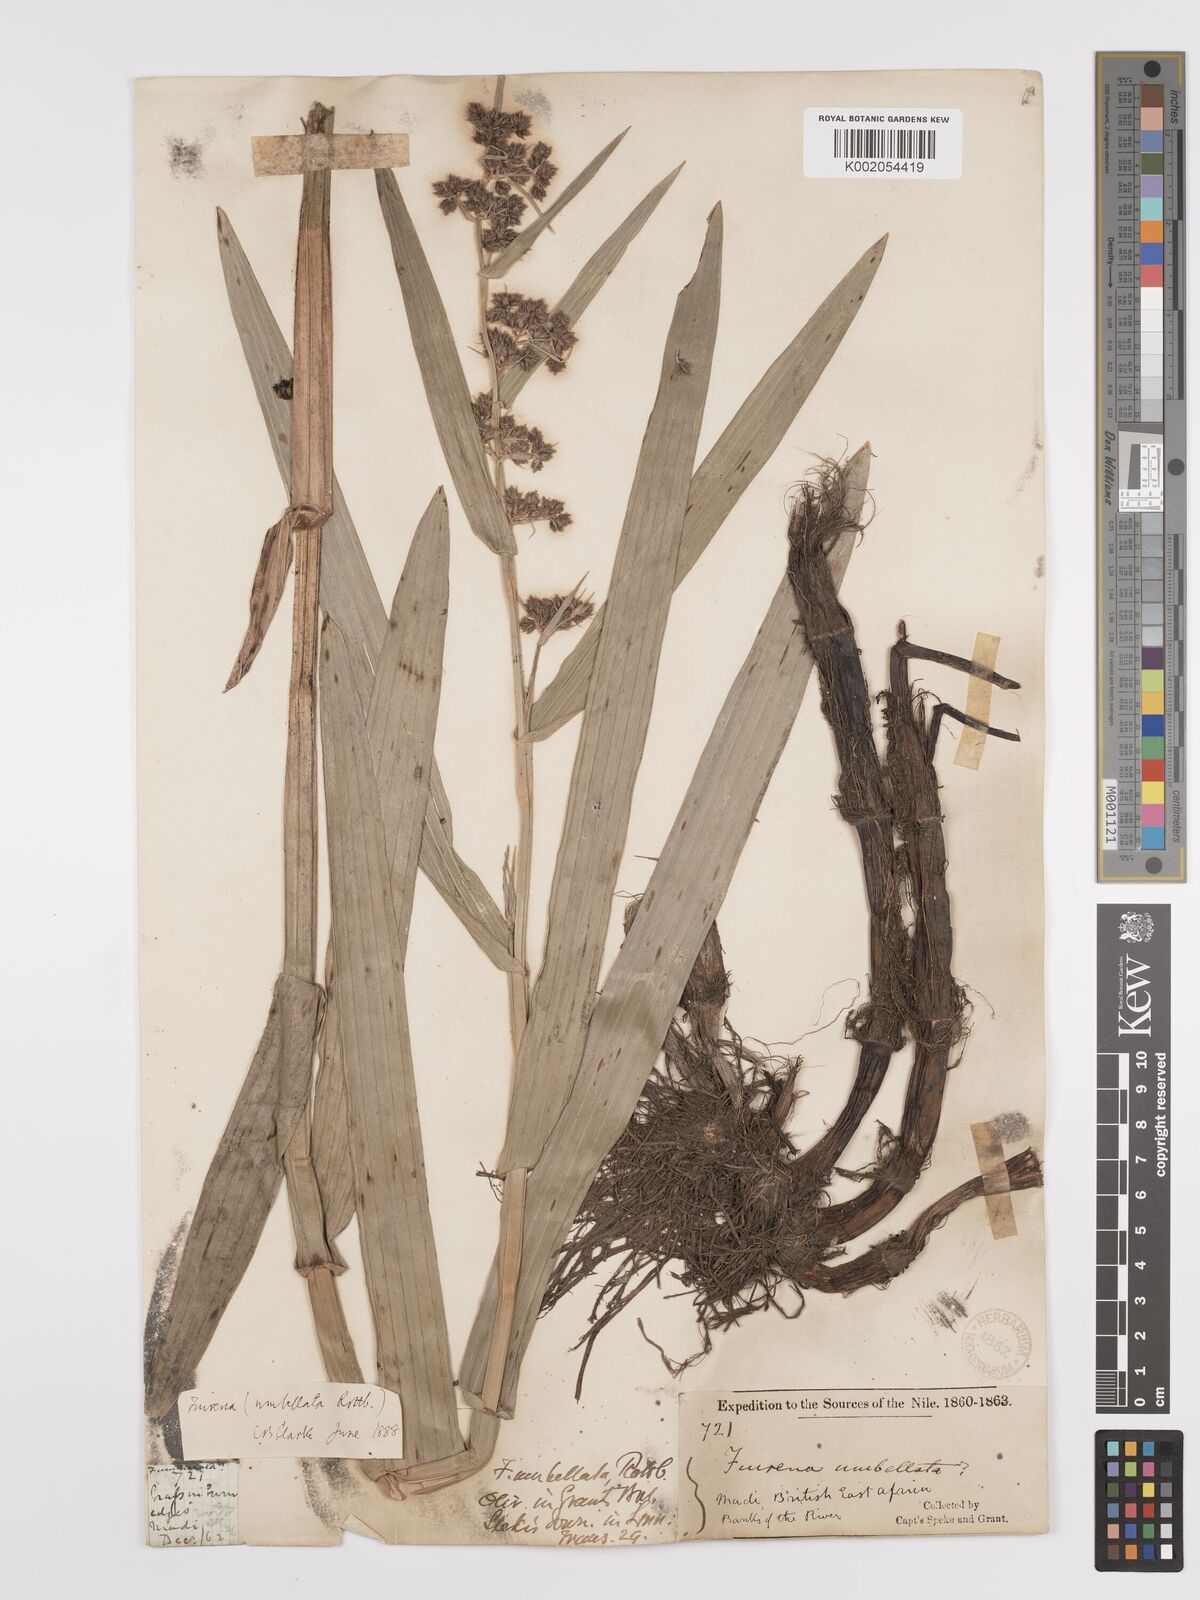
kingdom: Plantae
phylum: Tracheophyta
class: Liliopsida
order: Poales
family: Cyperaceae
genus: Fuirena
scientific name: Fuirena umbellata
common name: Yefen
